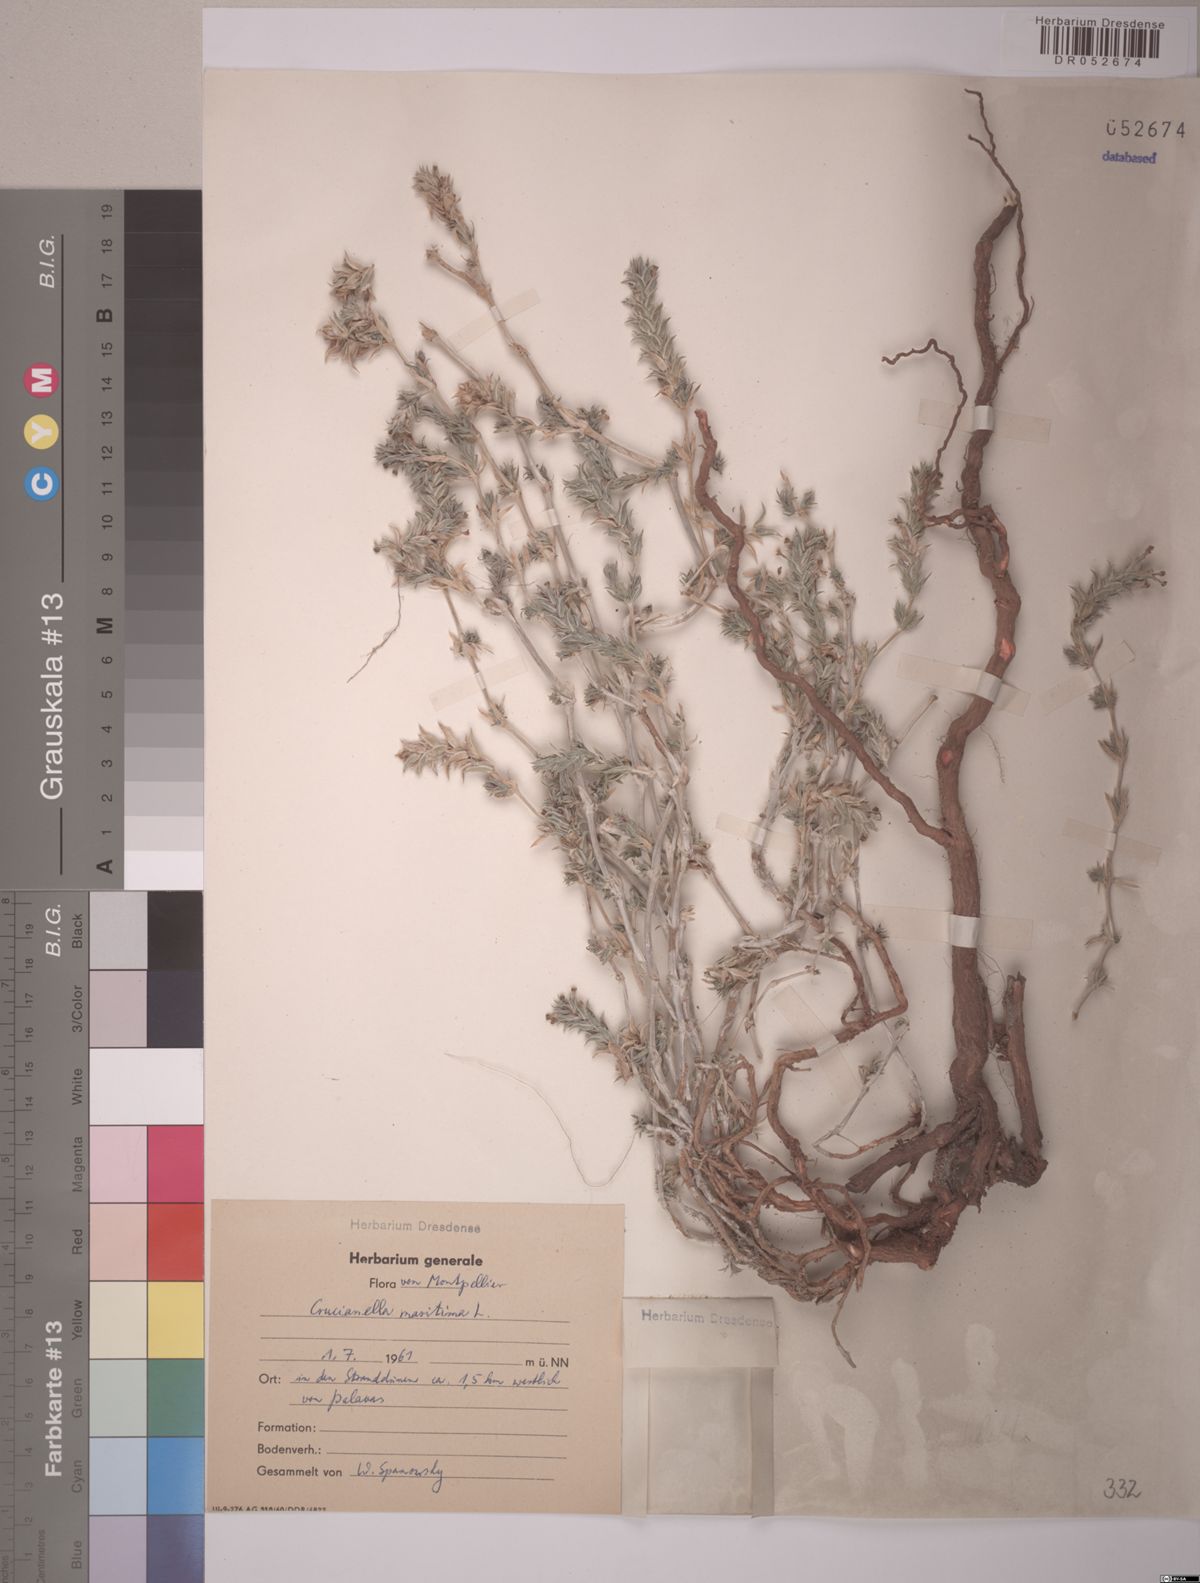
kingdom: Plantae
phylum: Tracheophyta
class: Magnoliopsida
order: Gentianales
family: Rubiaceae
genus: Crucianella
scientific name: Crucianella maritima
